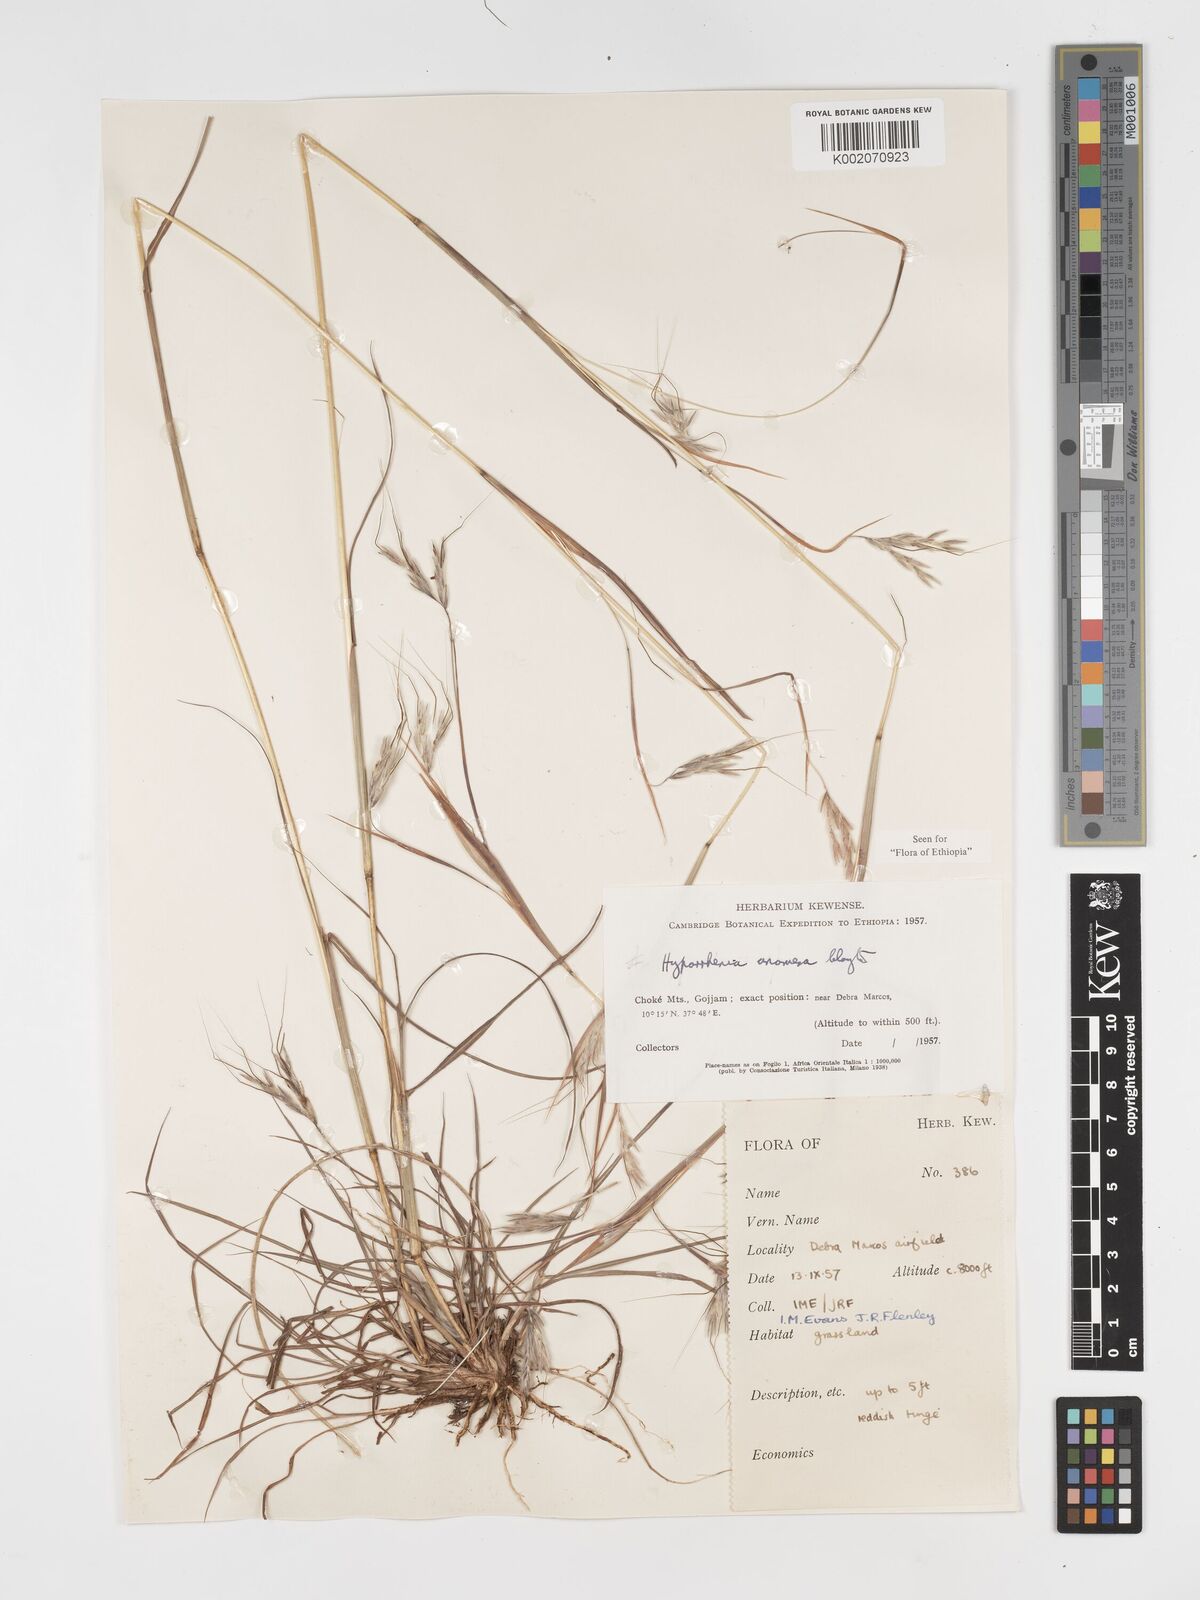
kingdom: Plantae
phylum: Tracheophyta
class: Liliopsida
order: Poales
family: Poaceae
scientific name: Poaceae
